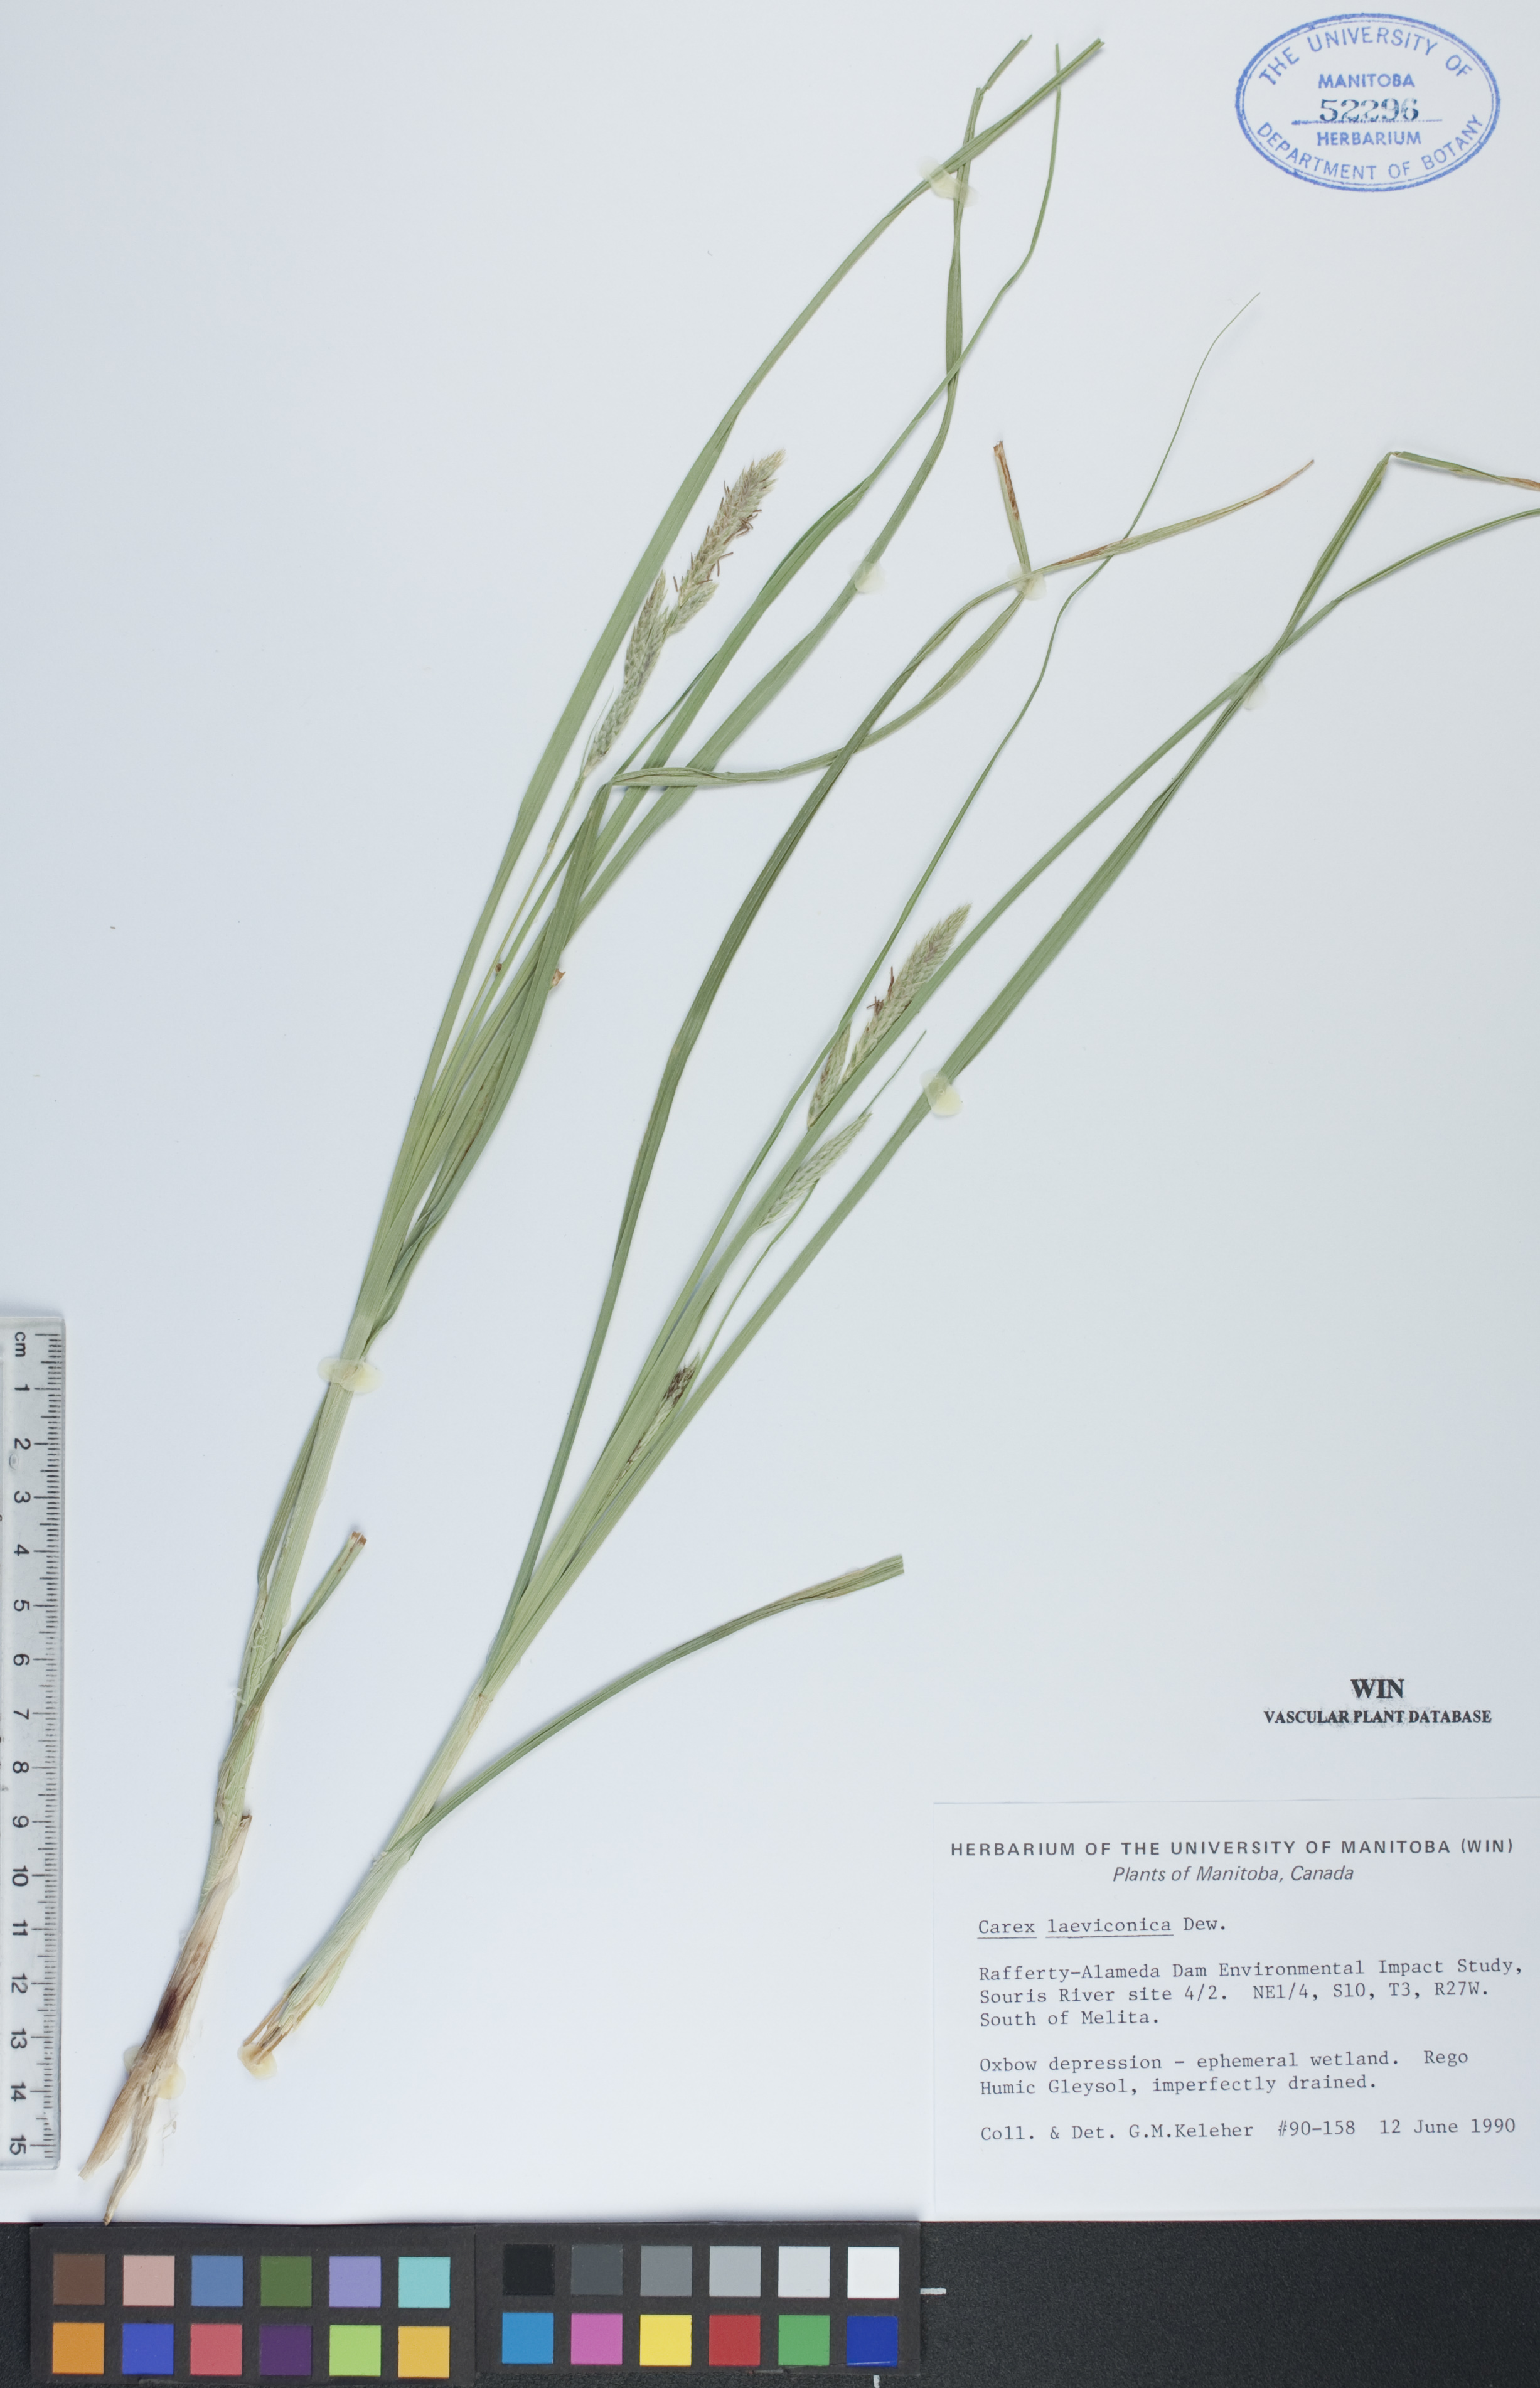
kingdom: Plantae
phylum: Tracheophyta
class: Liliopsida
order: Poales
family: Cyperaceae
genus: Carex
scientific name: Carex laeviconica
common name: Plains slough sedge
